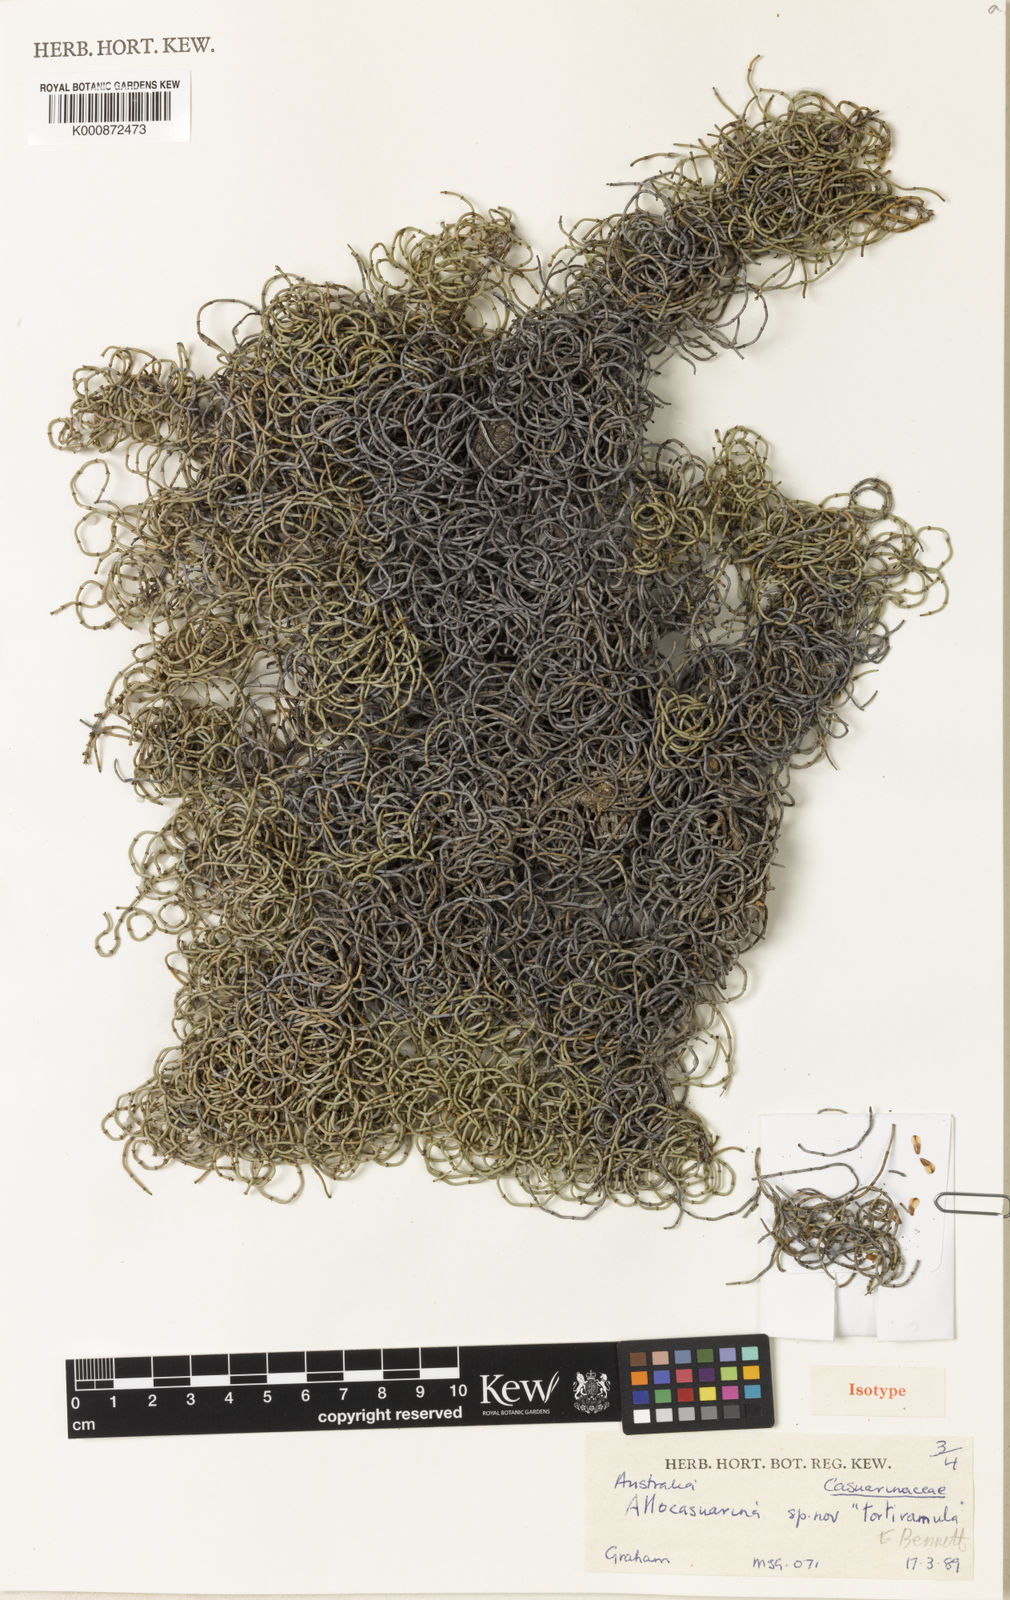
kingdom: Plantae
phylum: Tracheophyta
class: Magnoliopsida
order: Fagales
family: Casuarinaceae
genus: Allocasuarina
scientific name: Allocasuarina tortiramula
